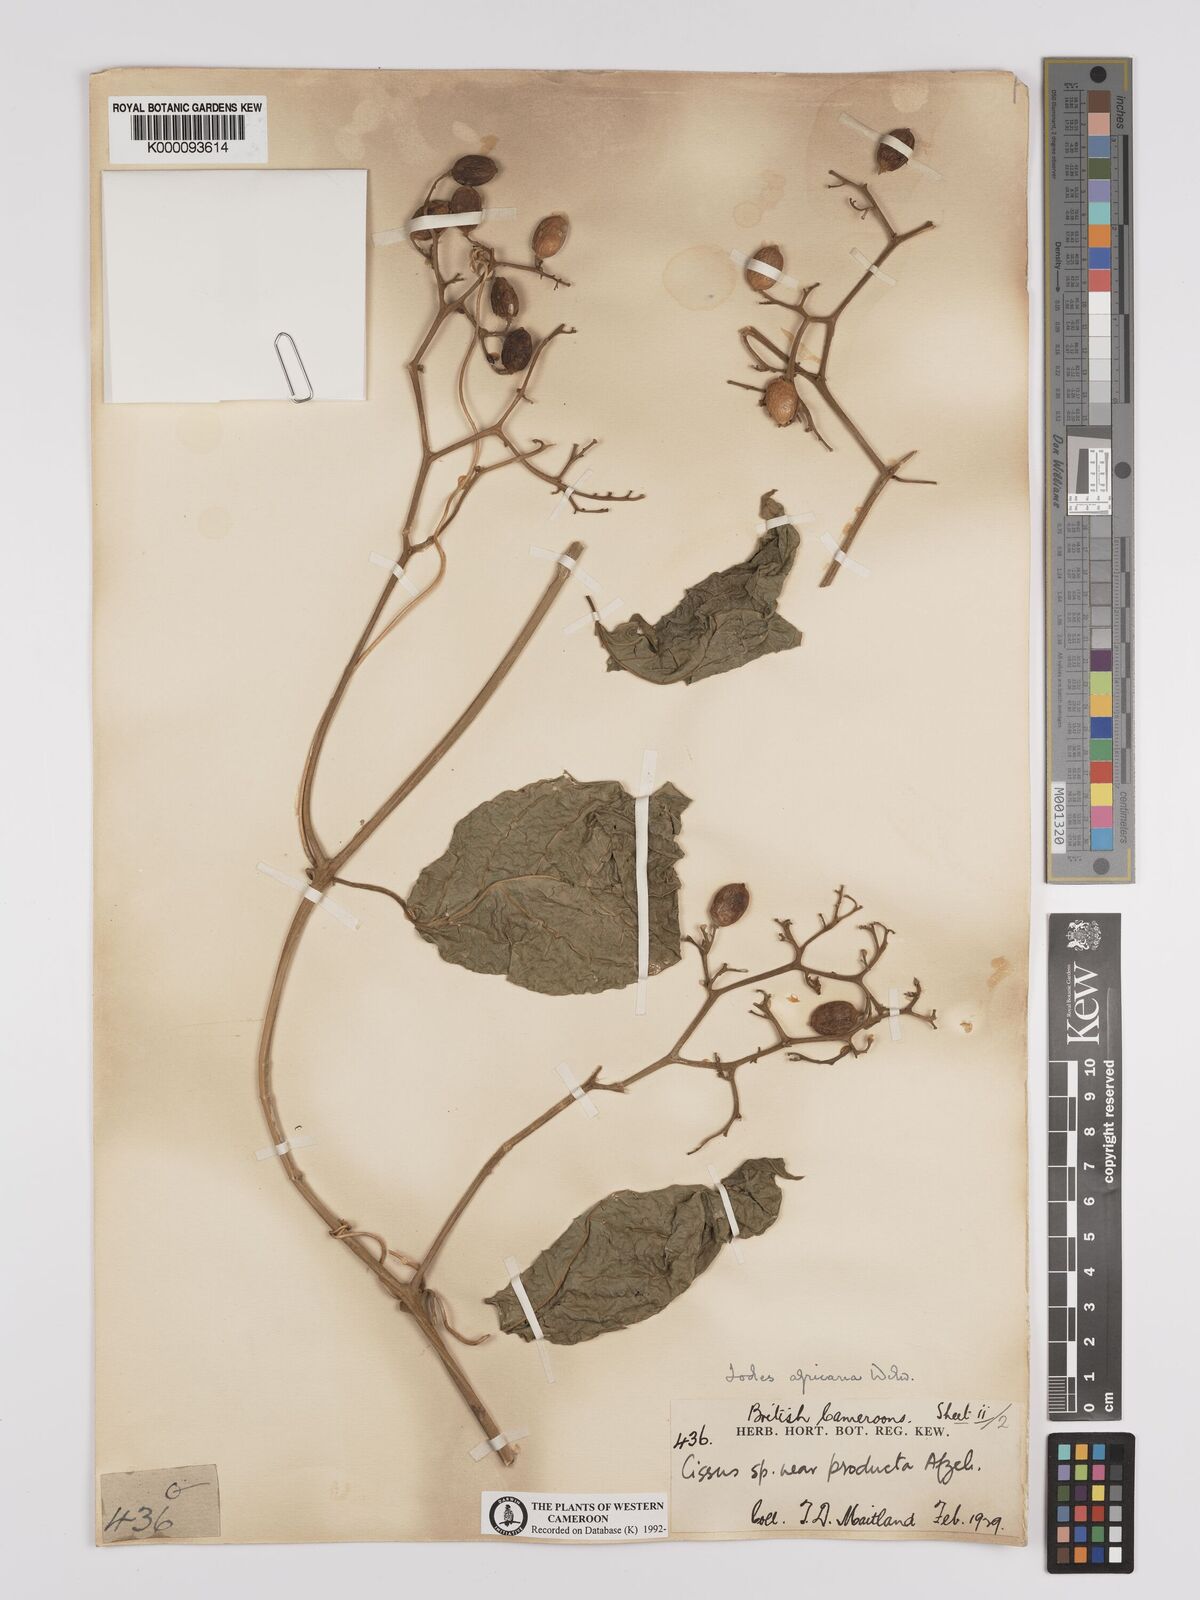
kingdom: Plantae
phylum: Tracheophyta
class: Magnoliopsida
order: Icacinales
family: Icacinaceae
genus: Iodes
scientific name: Iodes africana
